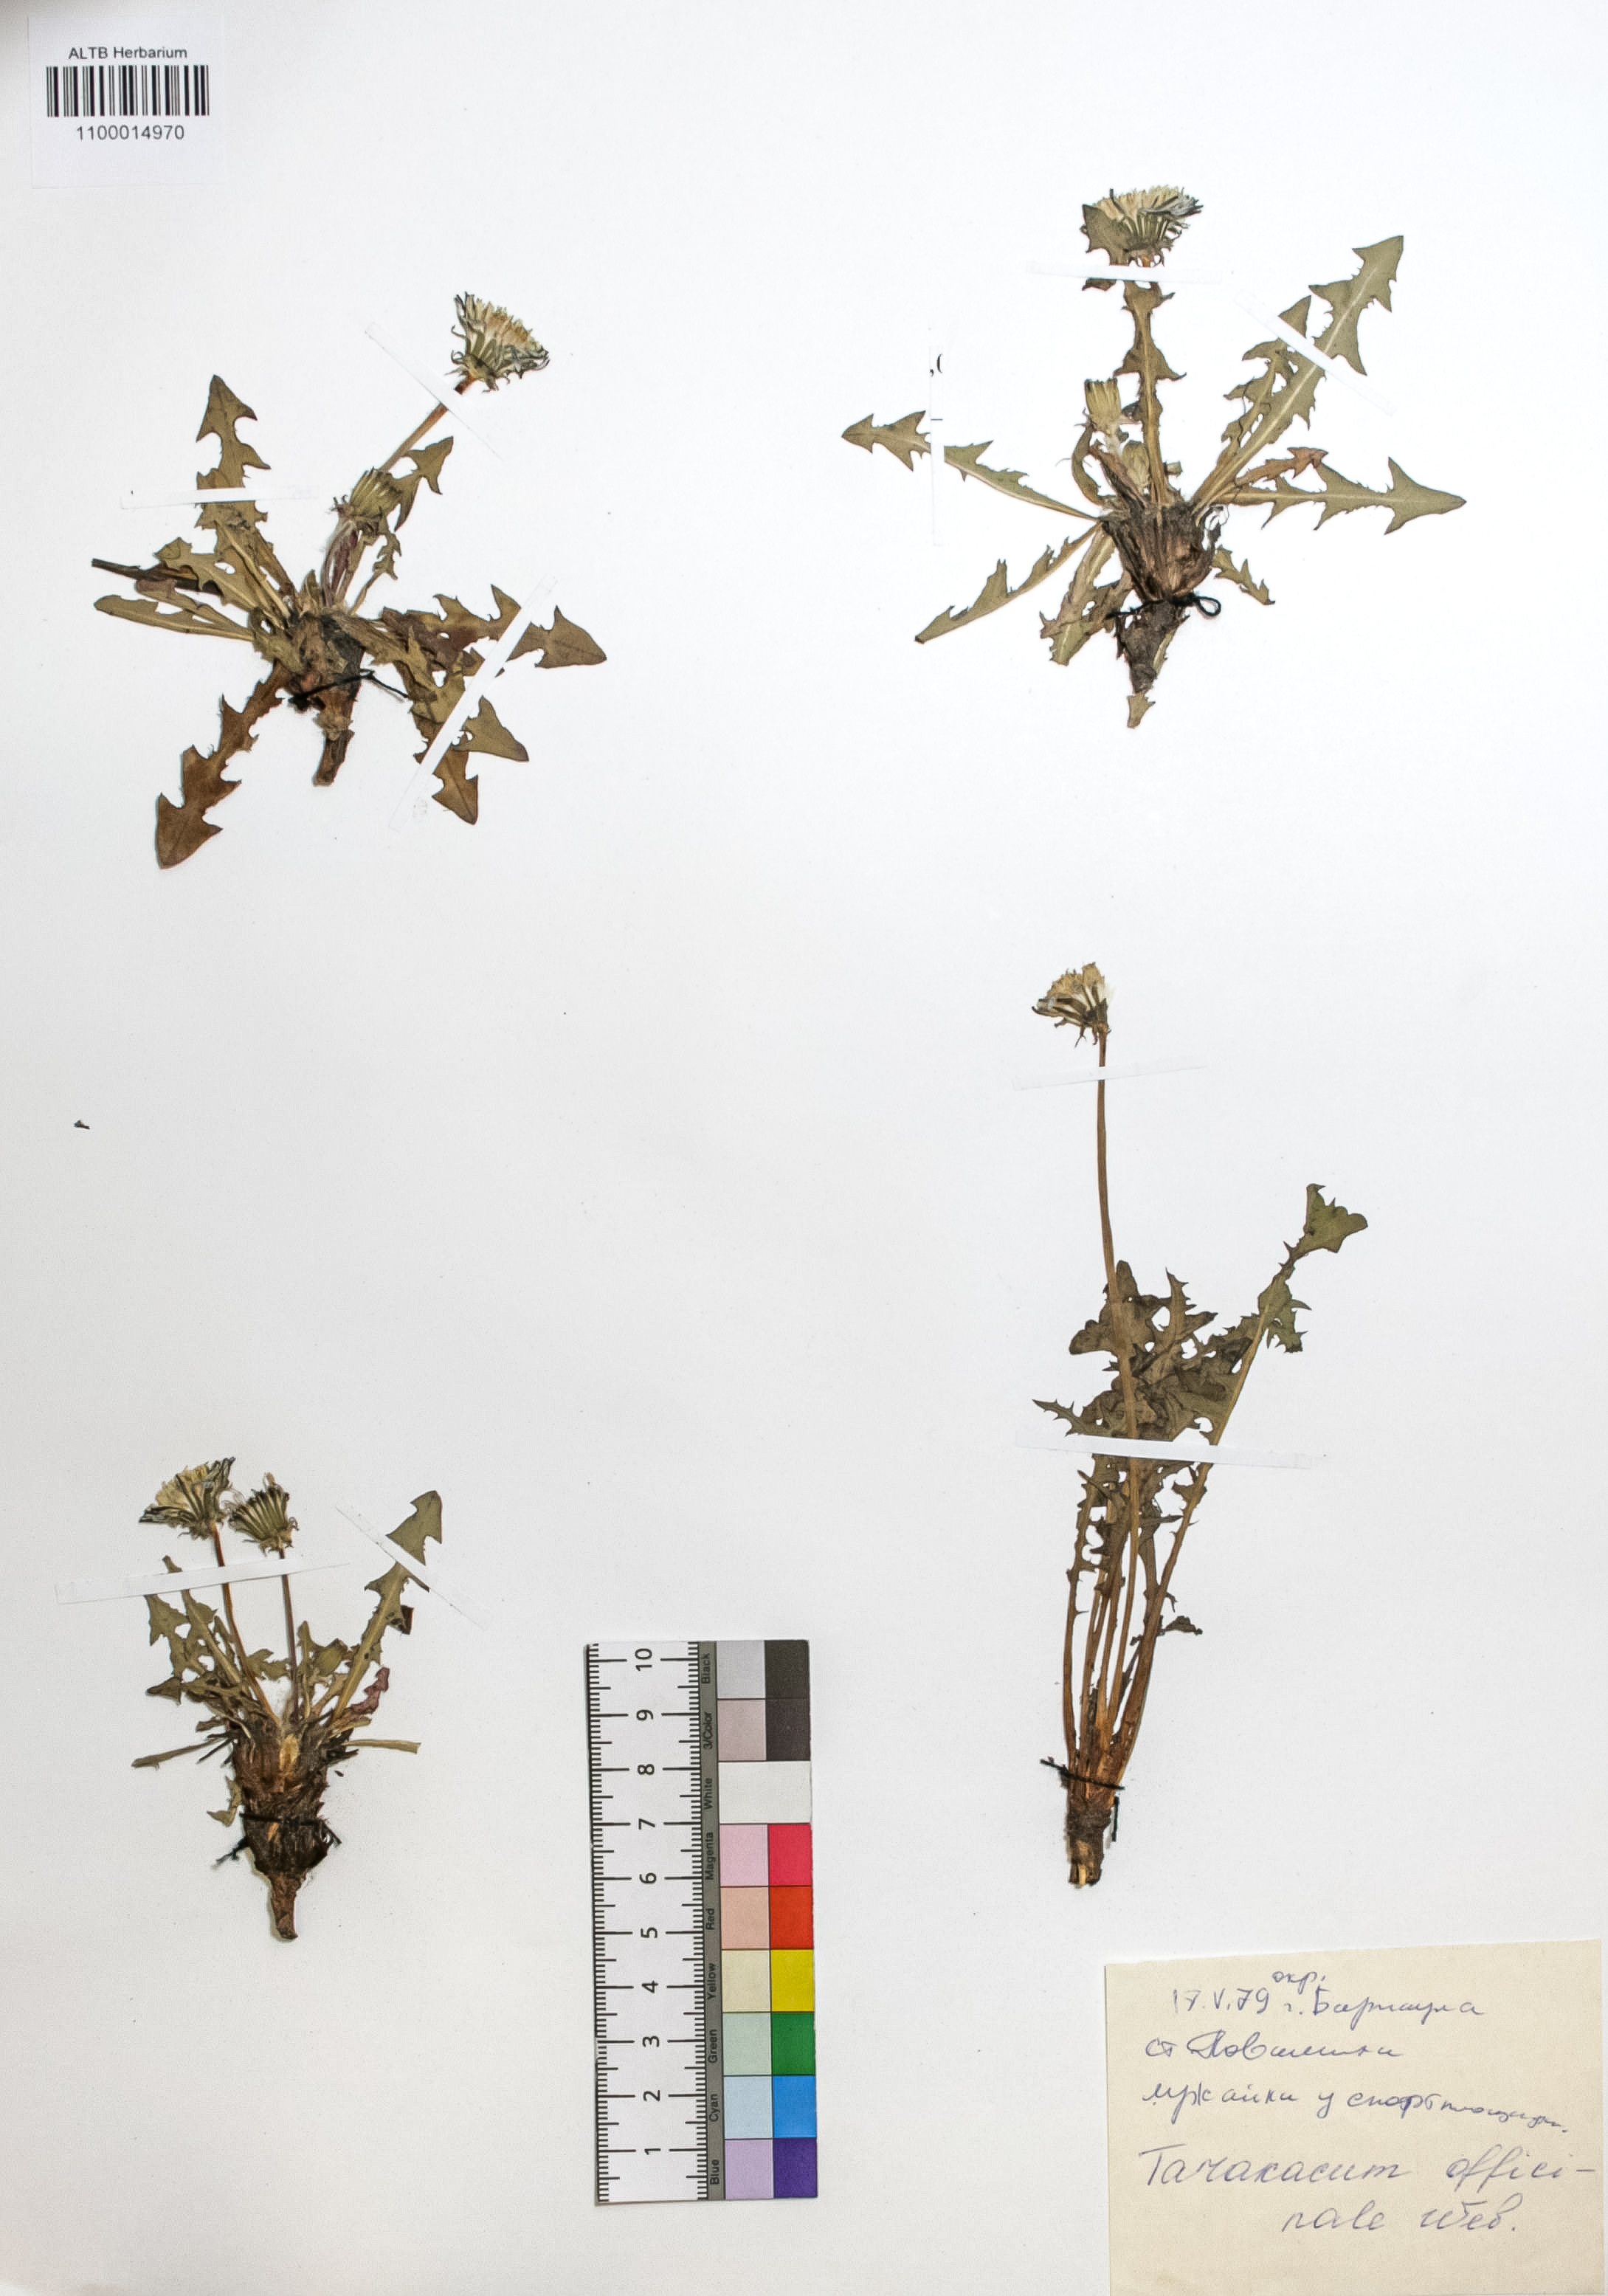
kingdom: Plantae
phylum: Tracheophyta
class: Magnoliopsida
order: Asterales
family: Asteraceae
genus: Taraxacum
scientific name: Taraxacum officinale
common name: Common dandelion
